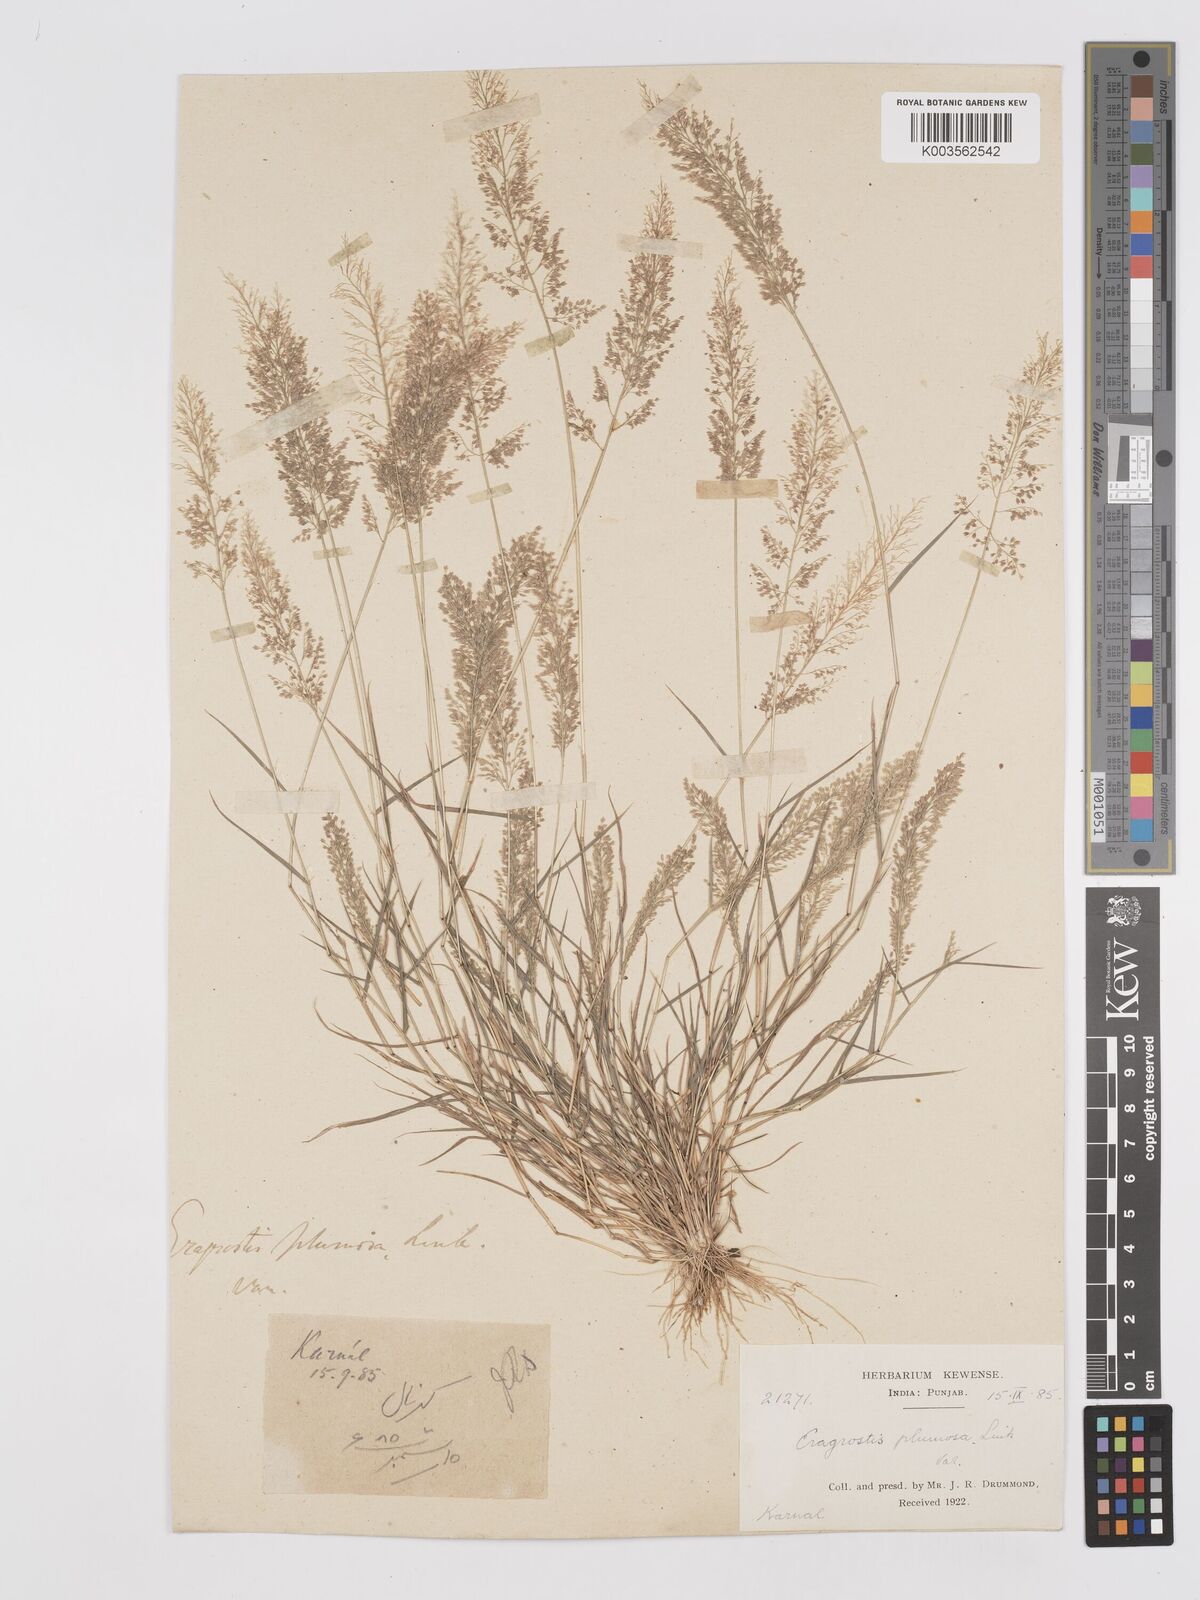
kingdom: Plantae
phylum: Tracheophyta
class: Liliopsida
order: Poales
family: Poaceae
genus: Eragrostis
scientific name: Eragrostis tenella
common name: Japanese lovegrass
